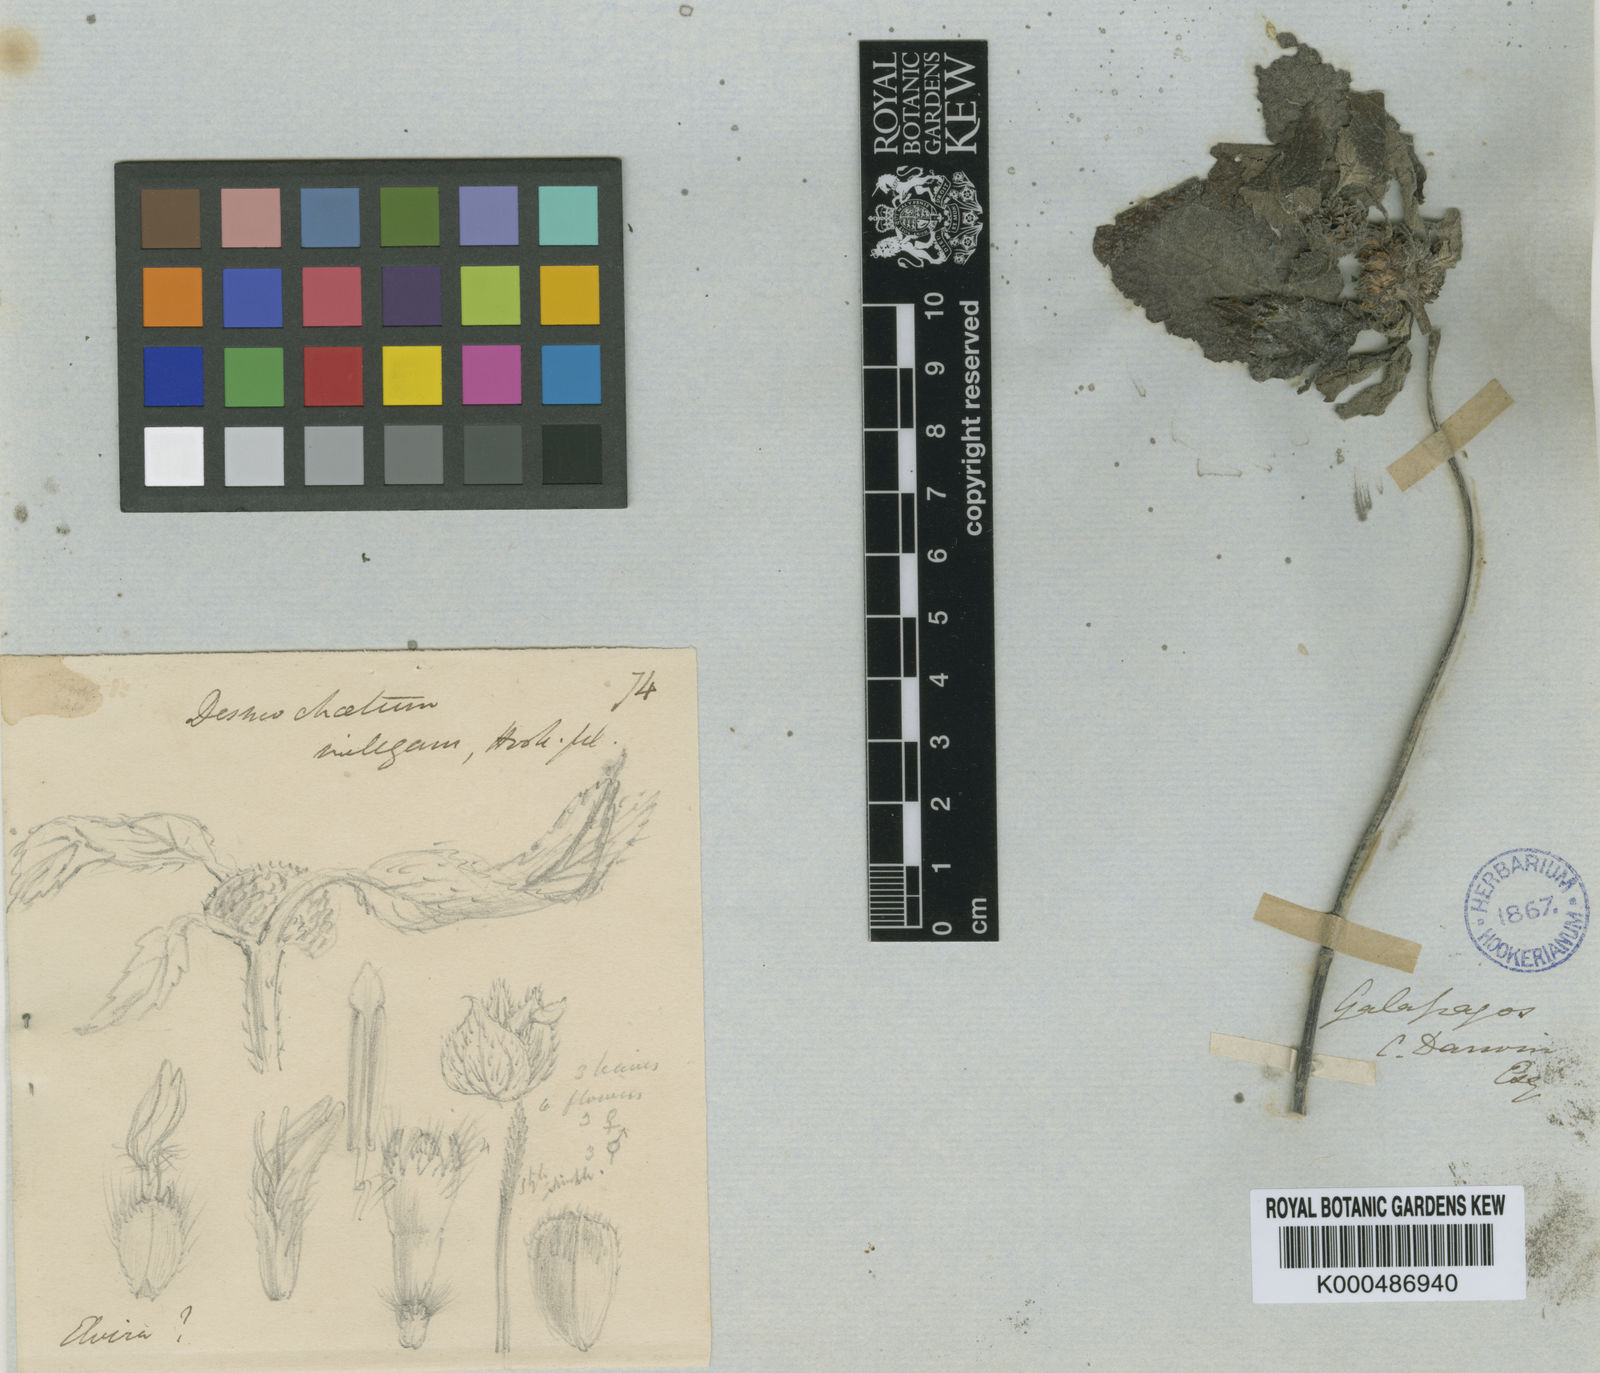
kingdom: Plantae
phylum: Tracheophyta
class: Magnoliopsida
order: Asterales
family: Asteraceae
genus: Delilia
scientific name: Delilia repens
